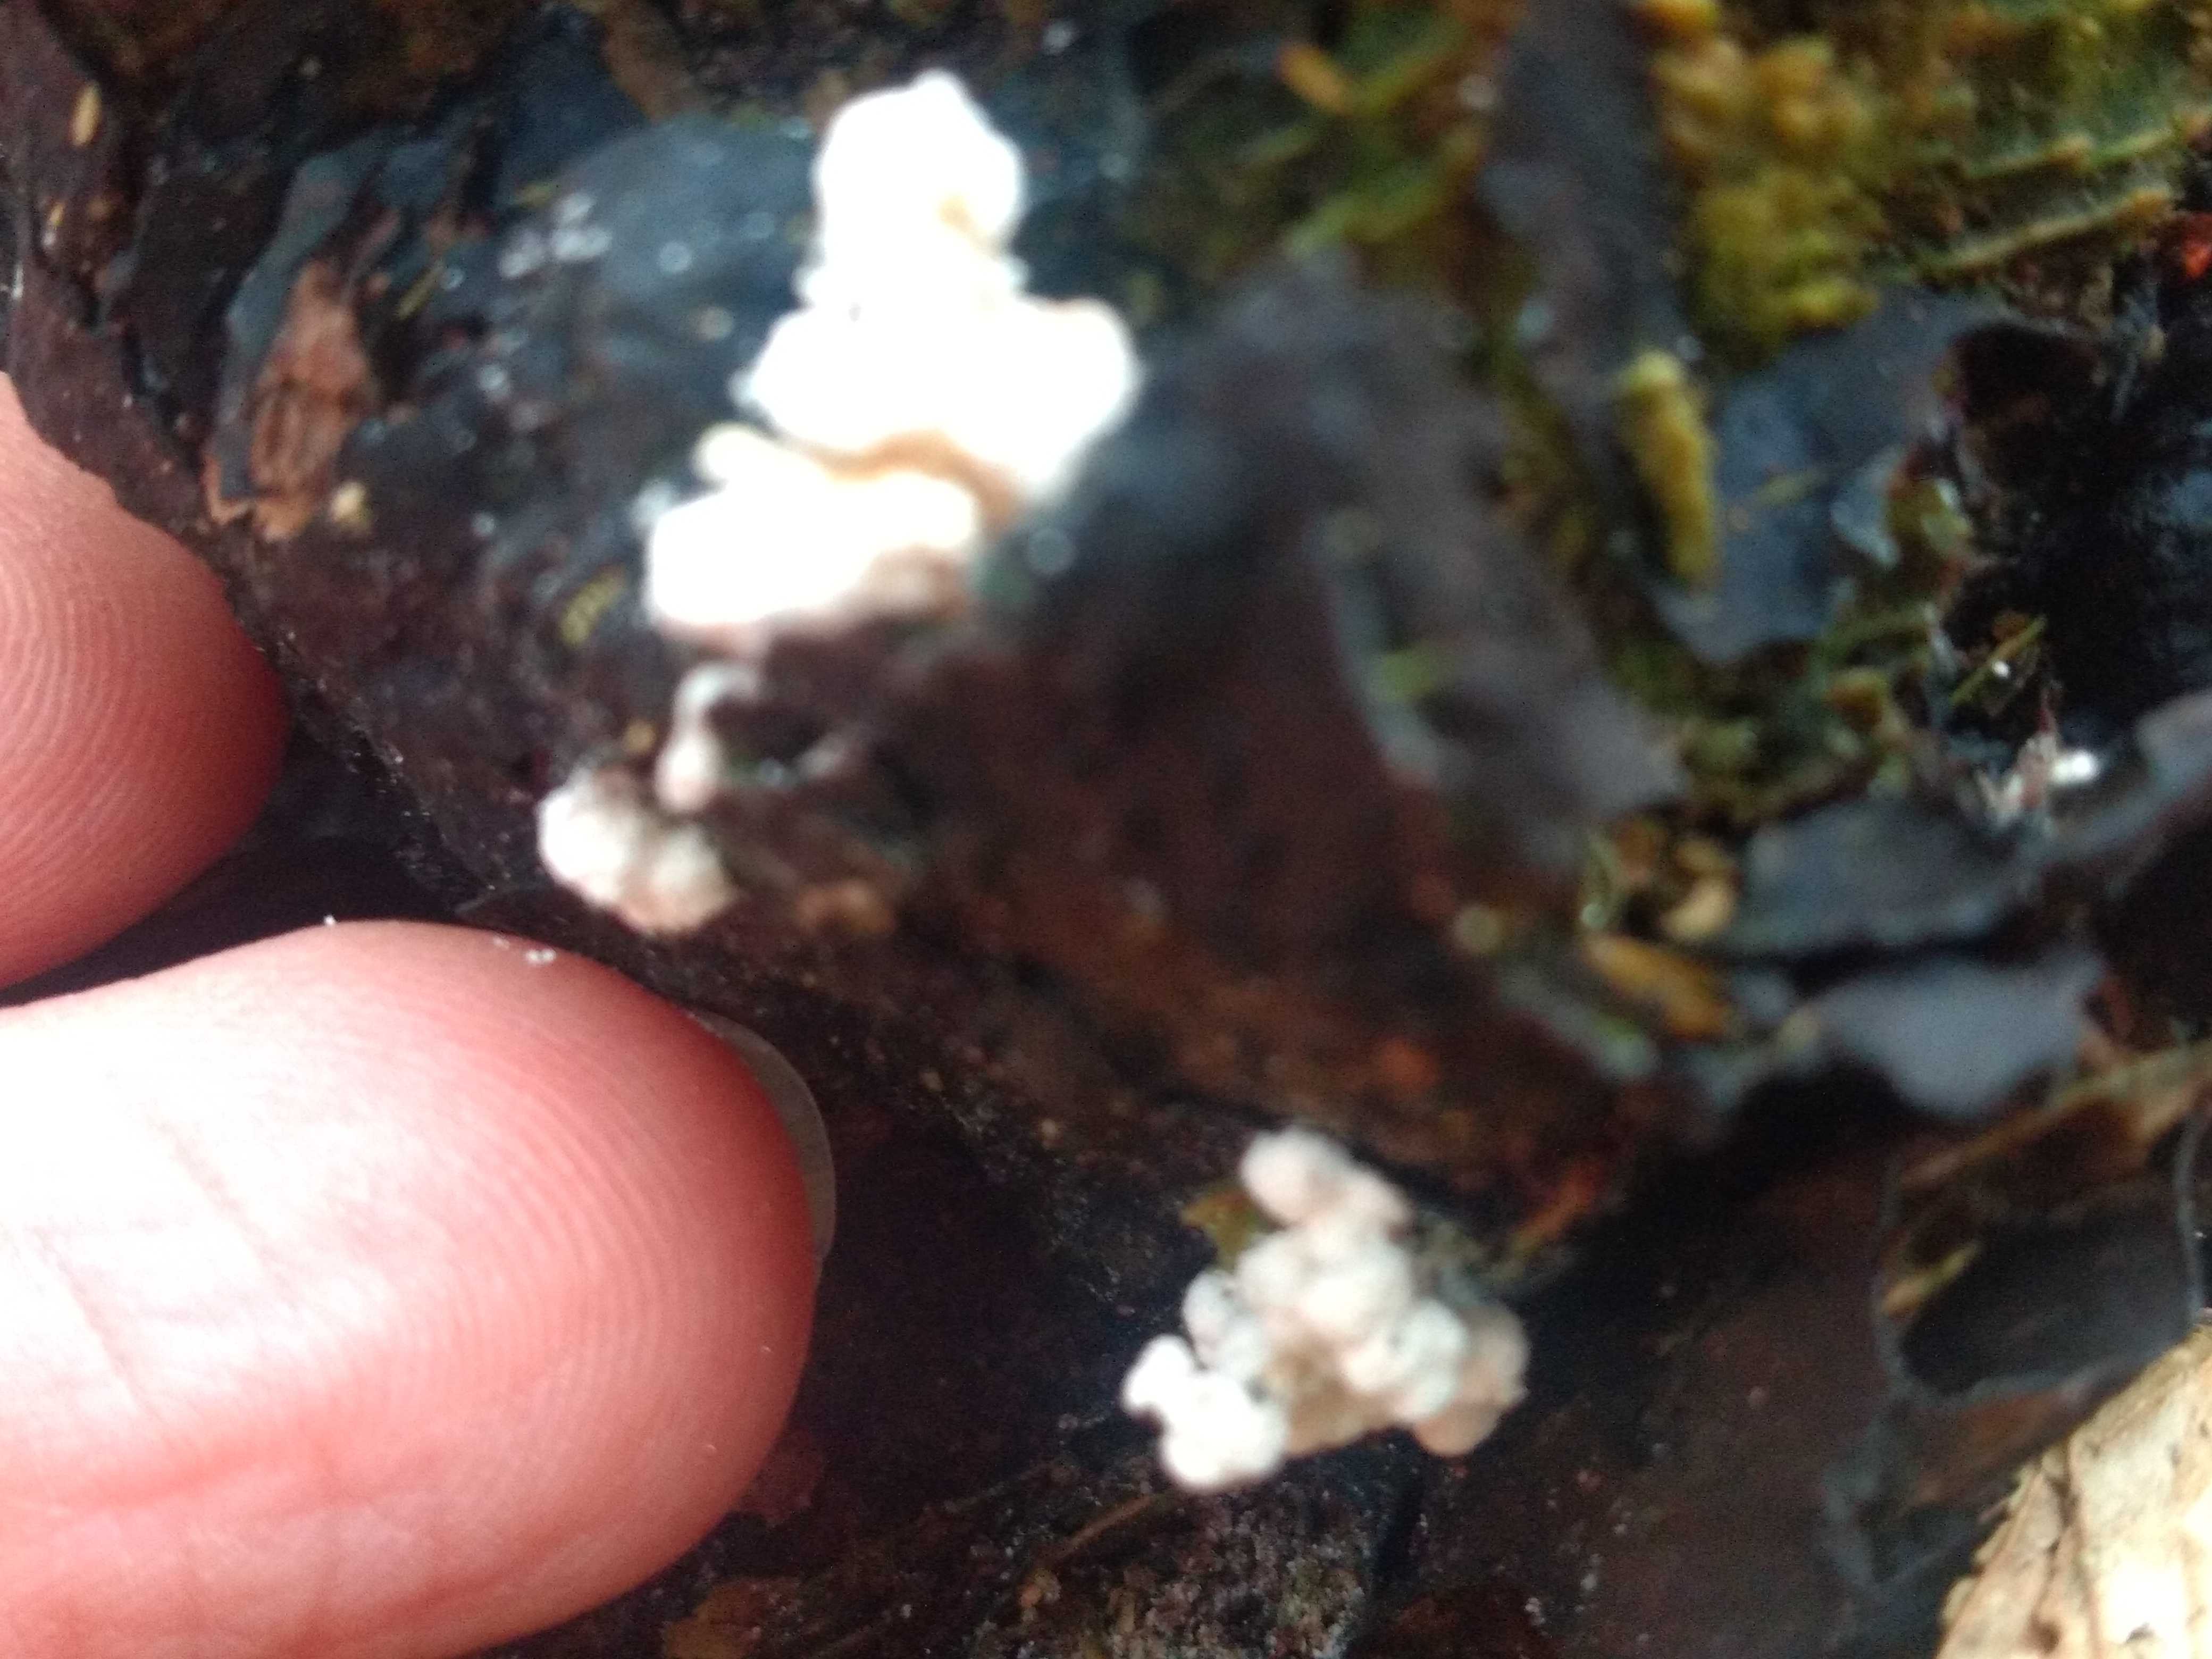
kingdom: Fungi
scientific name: Fungi
